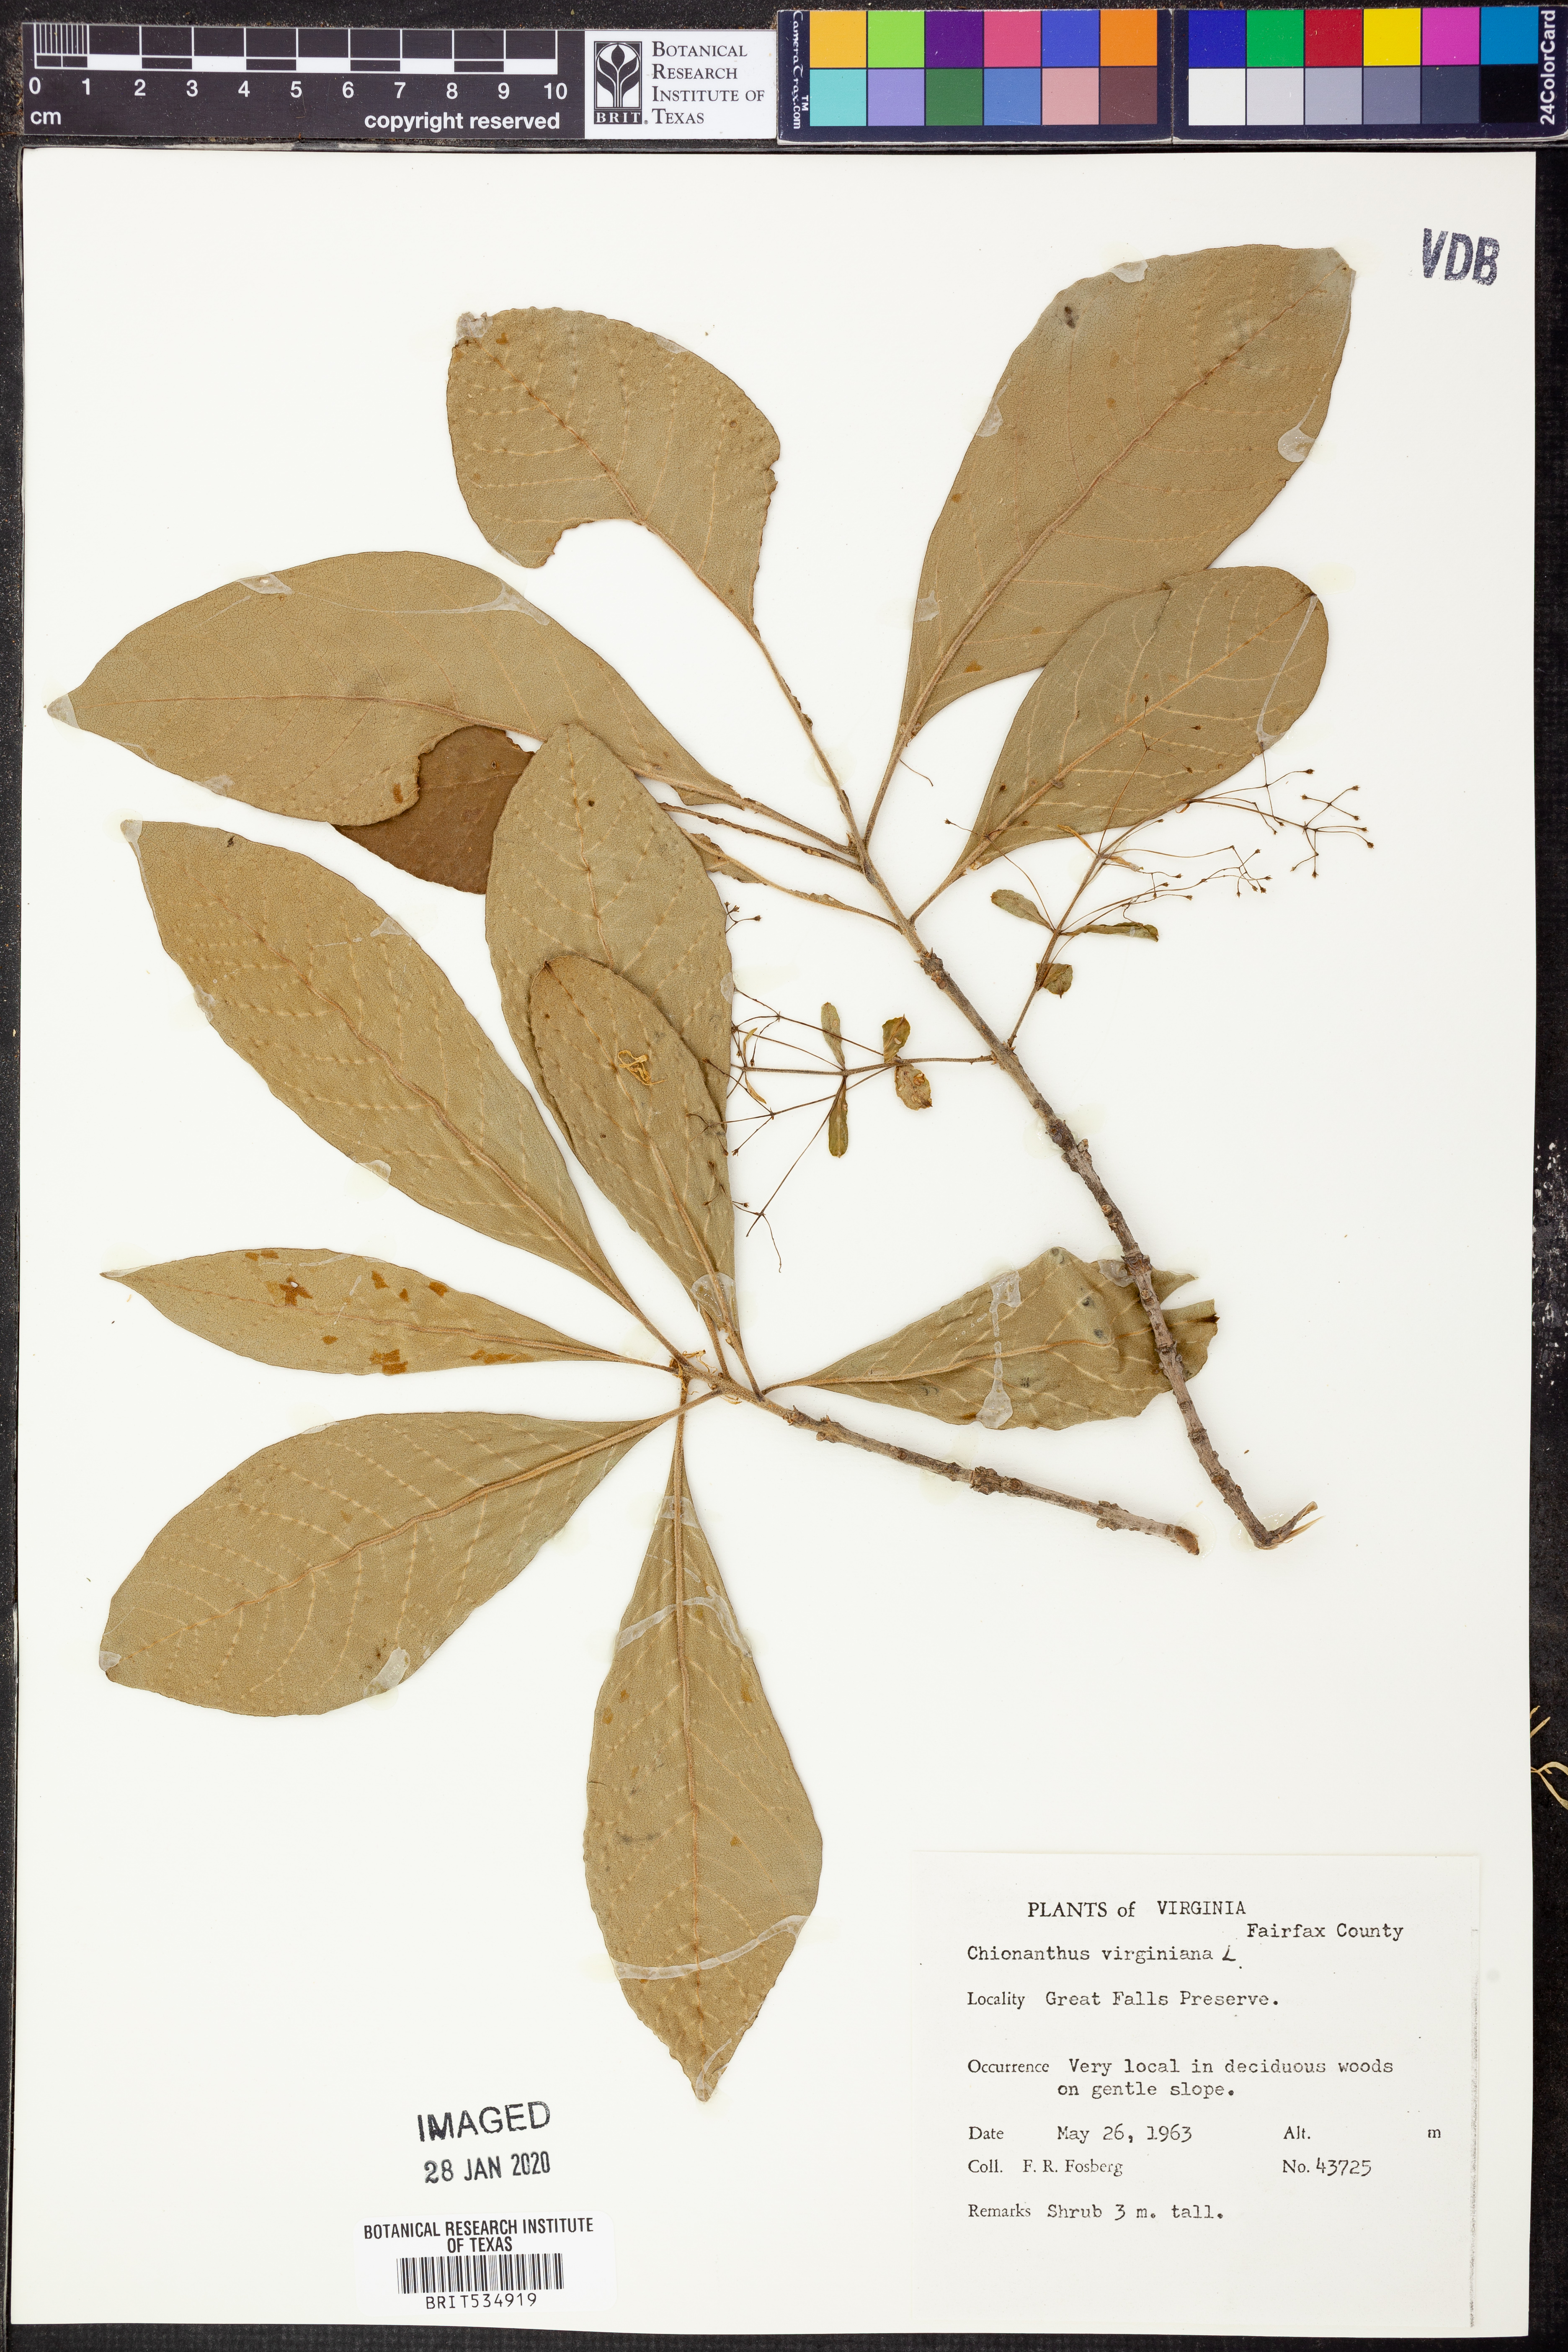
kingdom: Plantae
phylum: Tracheophyta
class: Magnoliopsida
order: Lamiales
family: Oleaceae
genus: Chionanthus
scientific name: Chionanthus virginicus
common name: American fringetree
